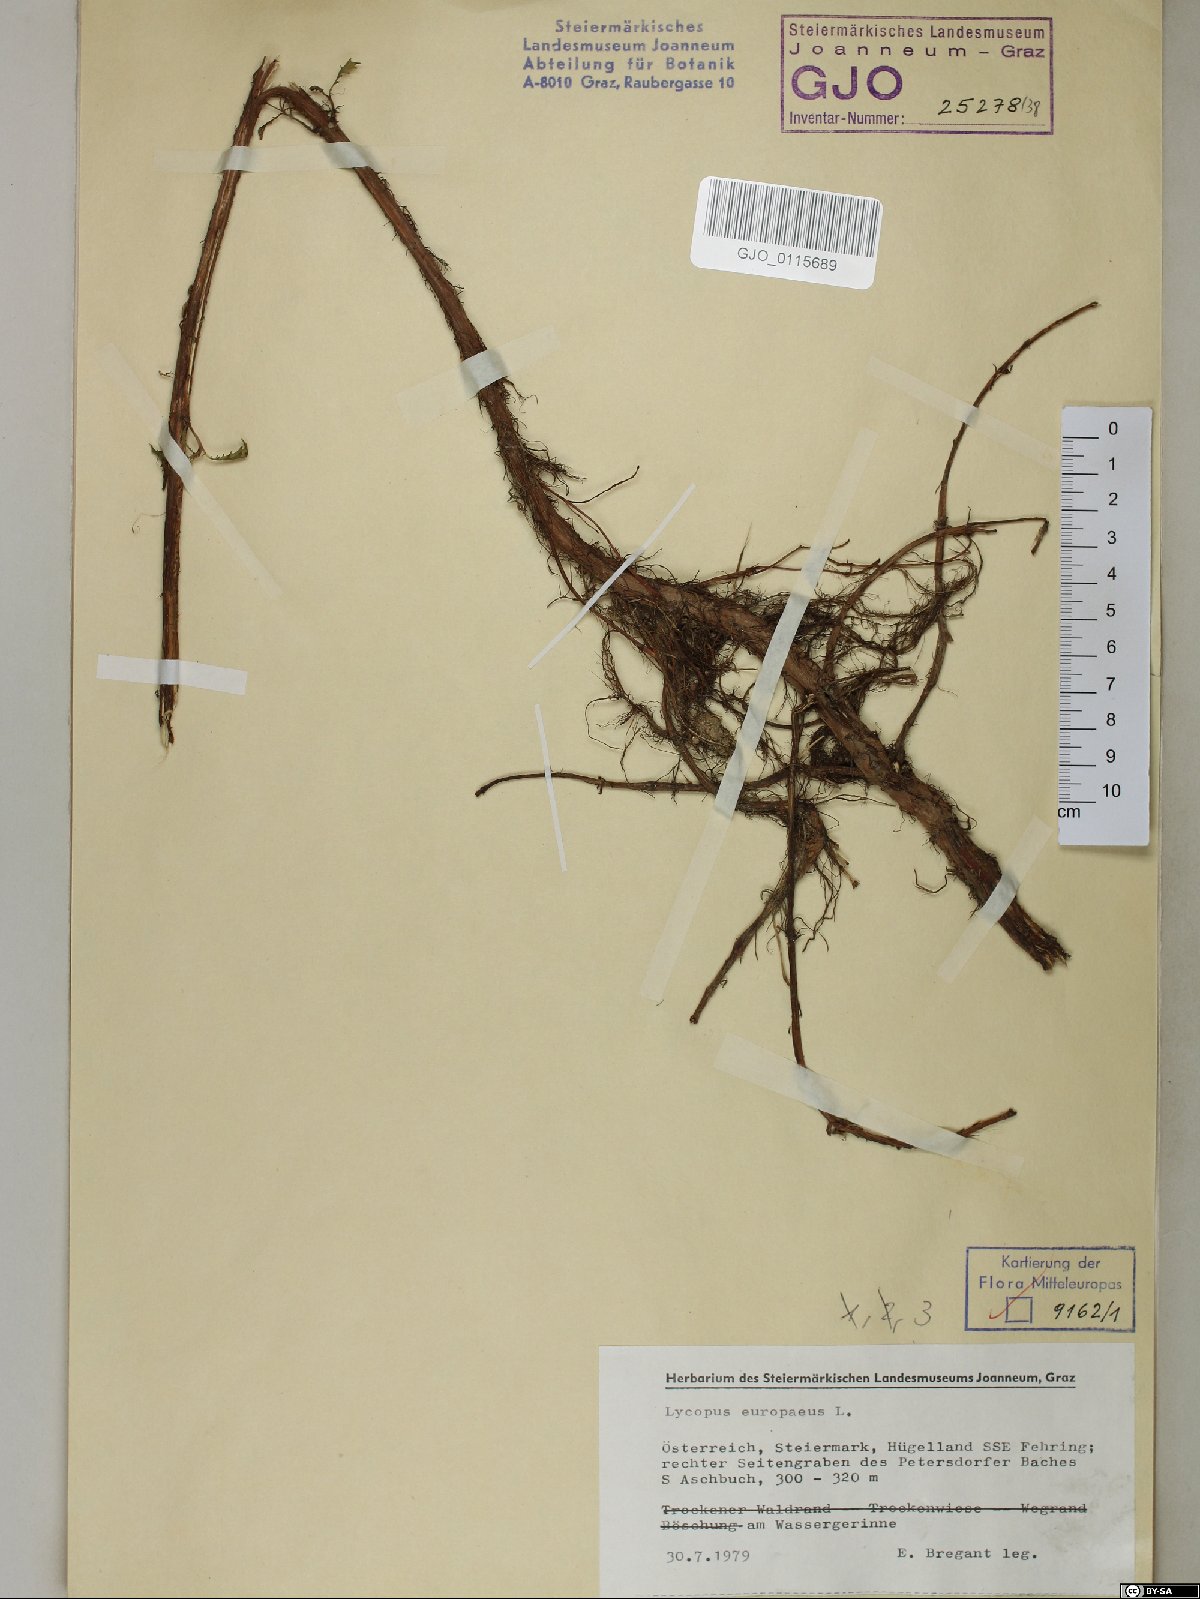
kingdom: Plantae
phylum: Tracheophyta
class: Magnoliopsida
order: Lamiales
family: Lamiaceae
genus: Lycopus
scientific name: Lycopus europaeus
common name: European bugleweed
